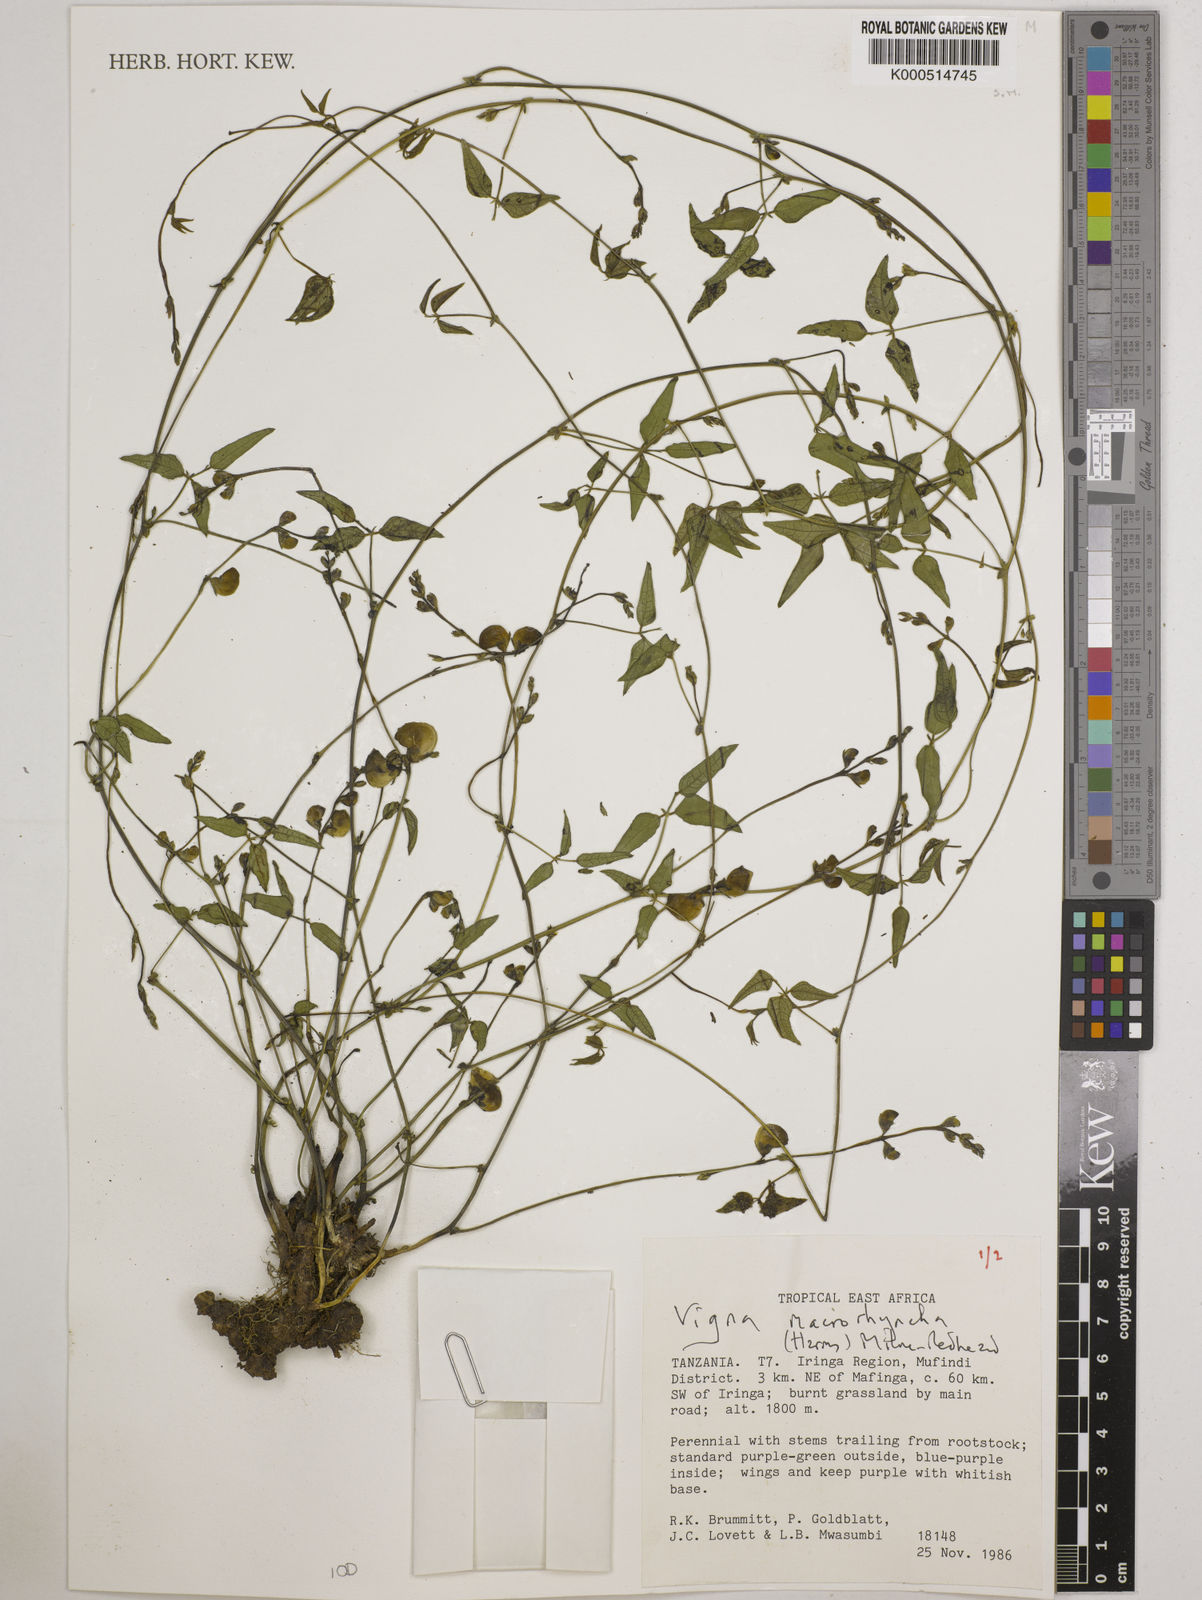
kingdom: Plantae
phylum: Tracheophyta
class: Magnoliopsida
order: Fabales
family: Fabaceae
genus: Wajira
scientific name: Wajira grahamiana
